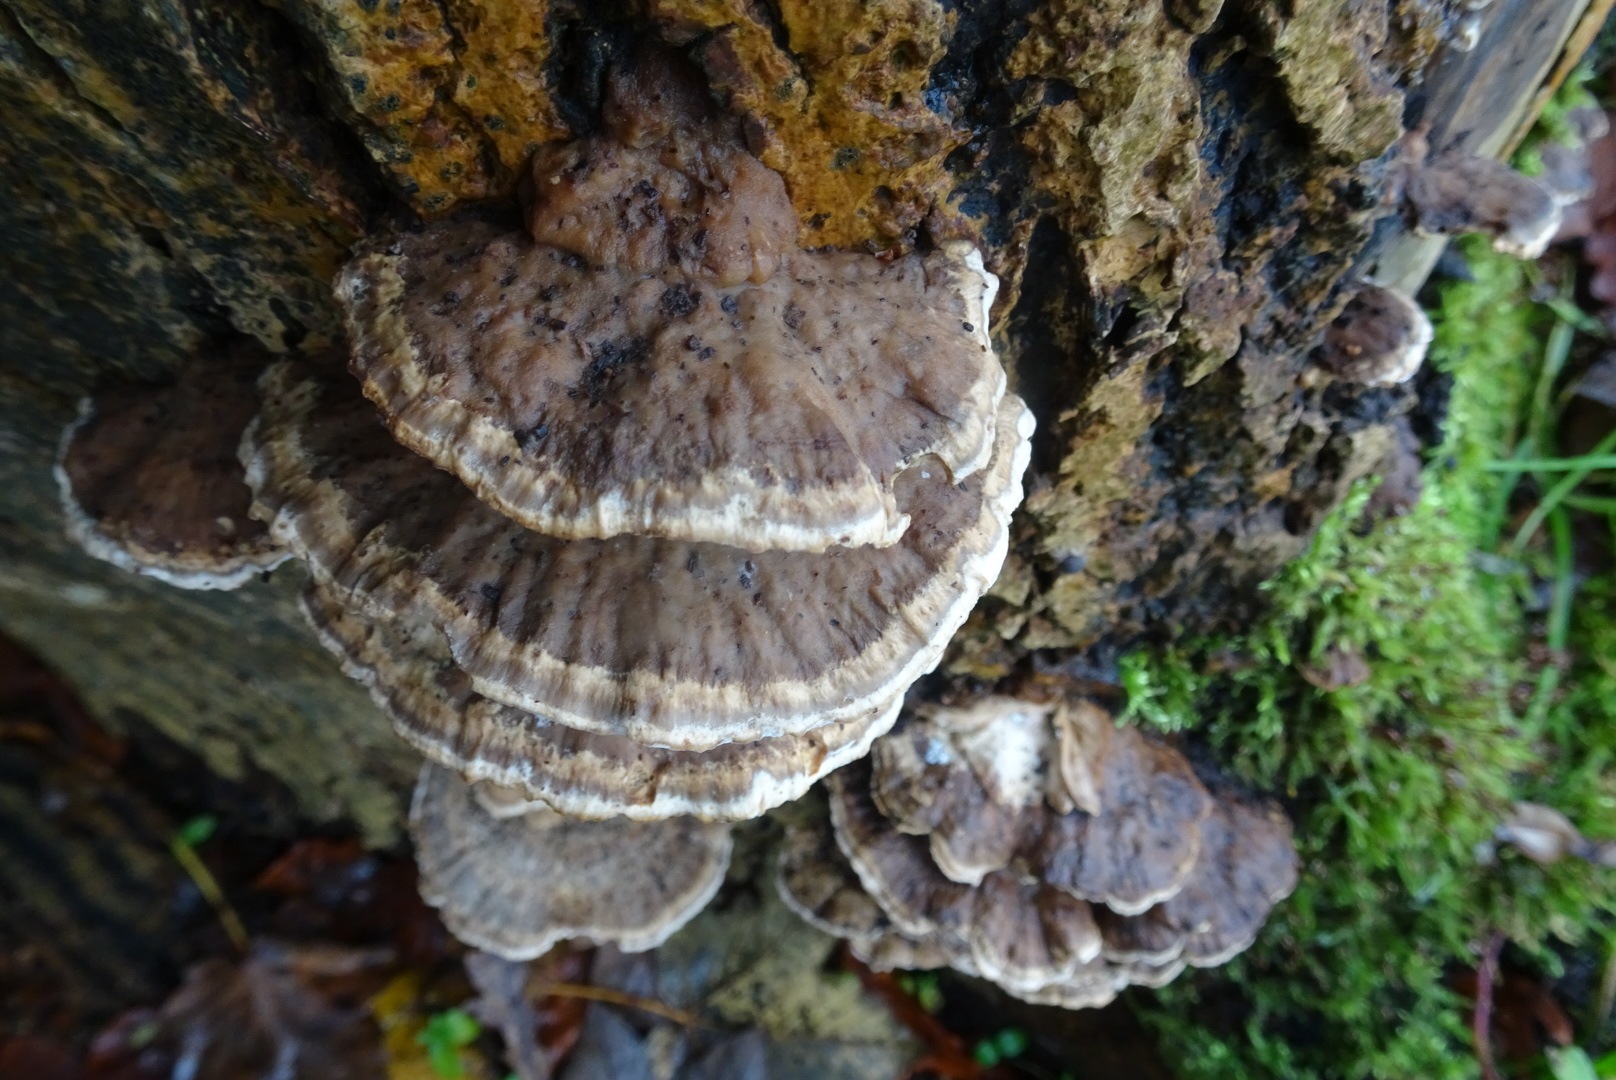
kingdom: Fungi
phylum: Basidiomycota
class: Agaricomycetes
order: Polyporales
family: Phanerochaetaceae
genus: Bjerkandera
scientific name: Bjerkandera fumosa
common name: grågul sodporesvamp
